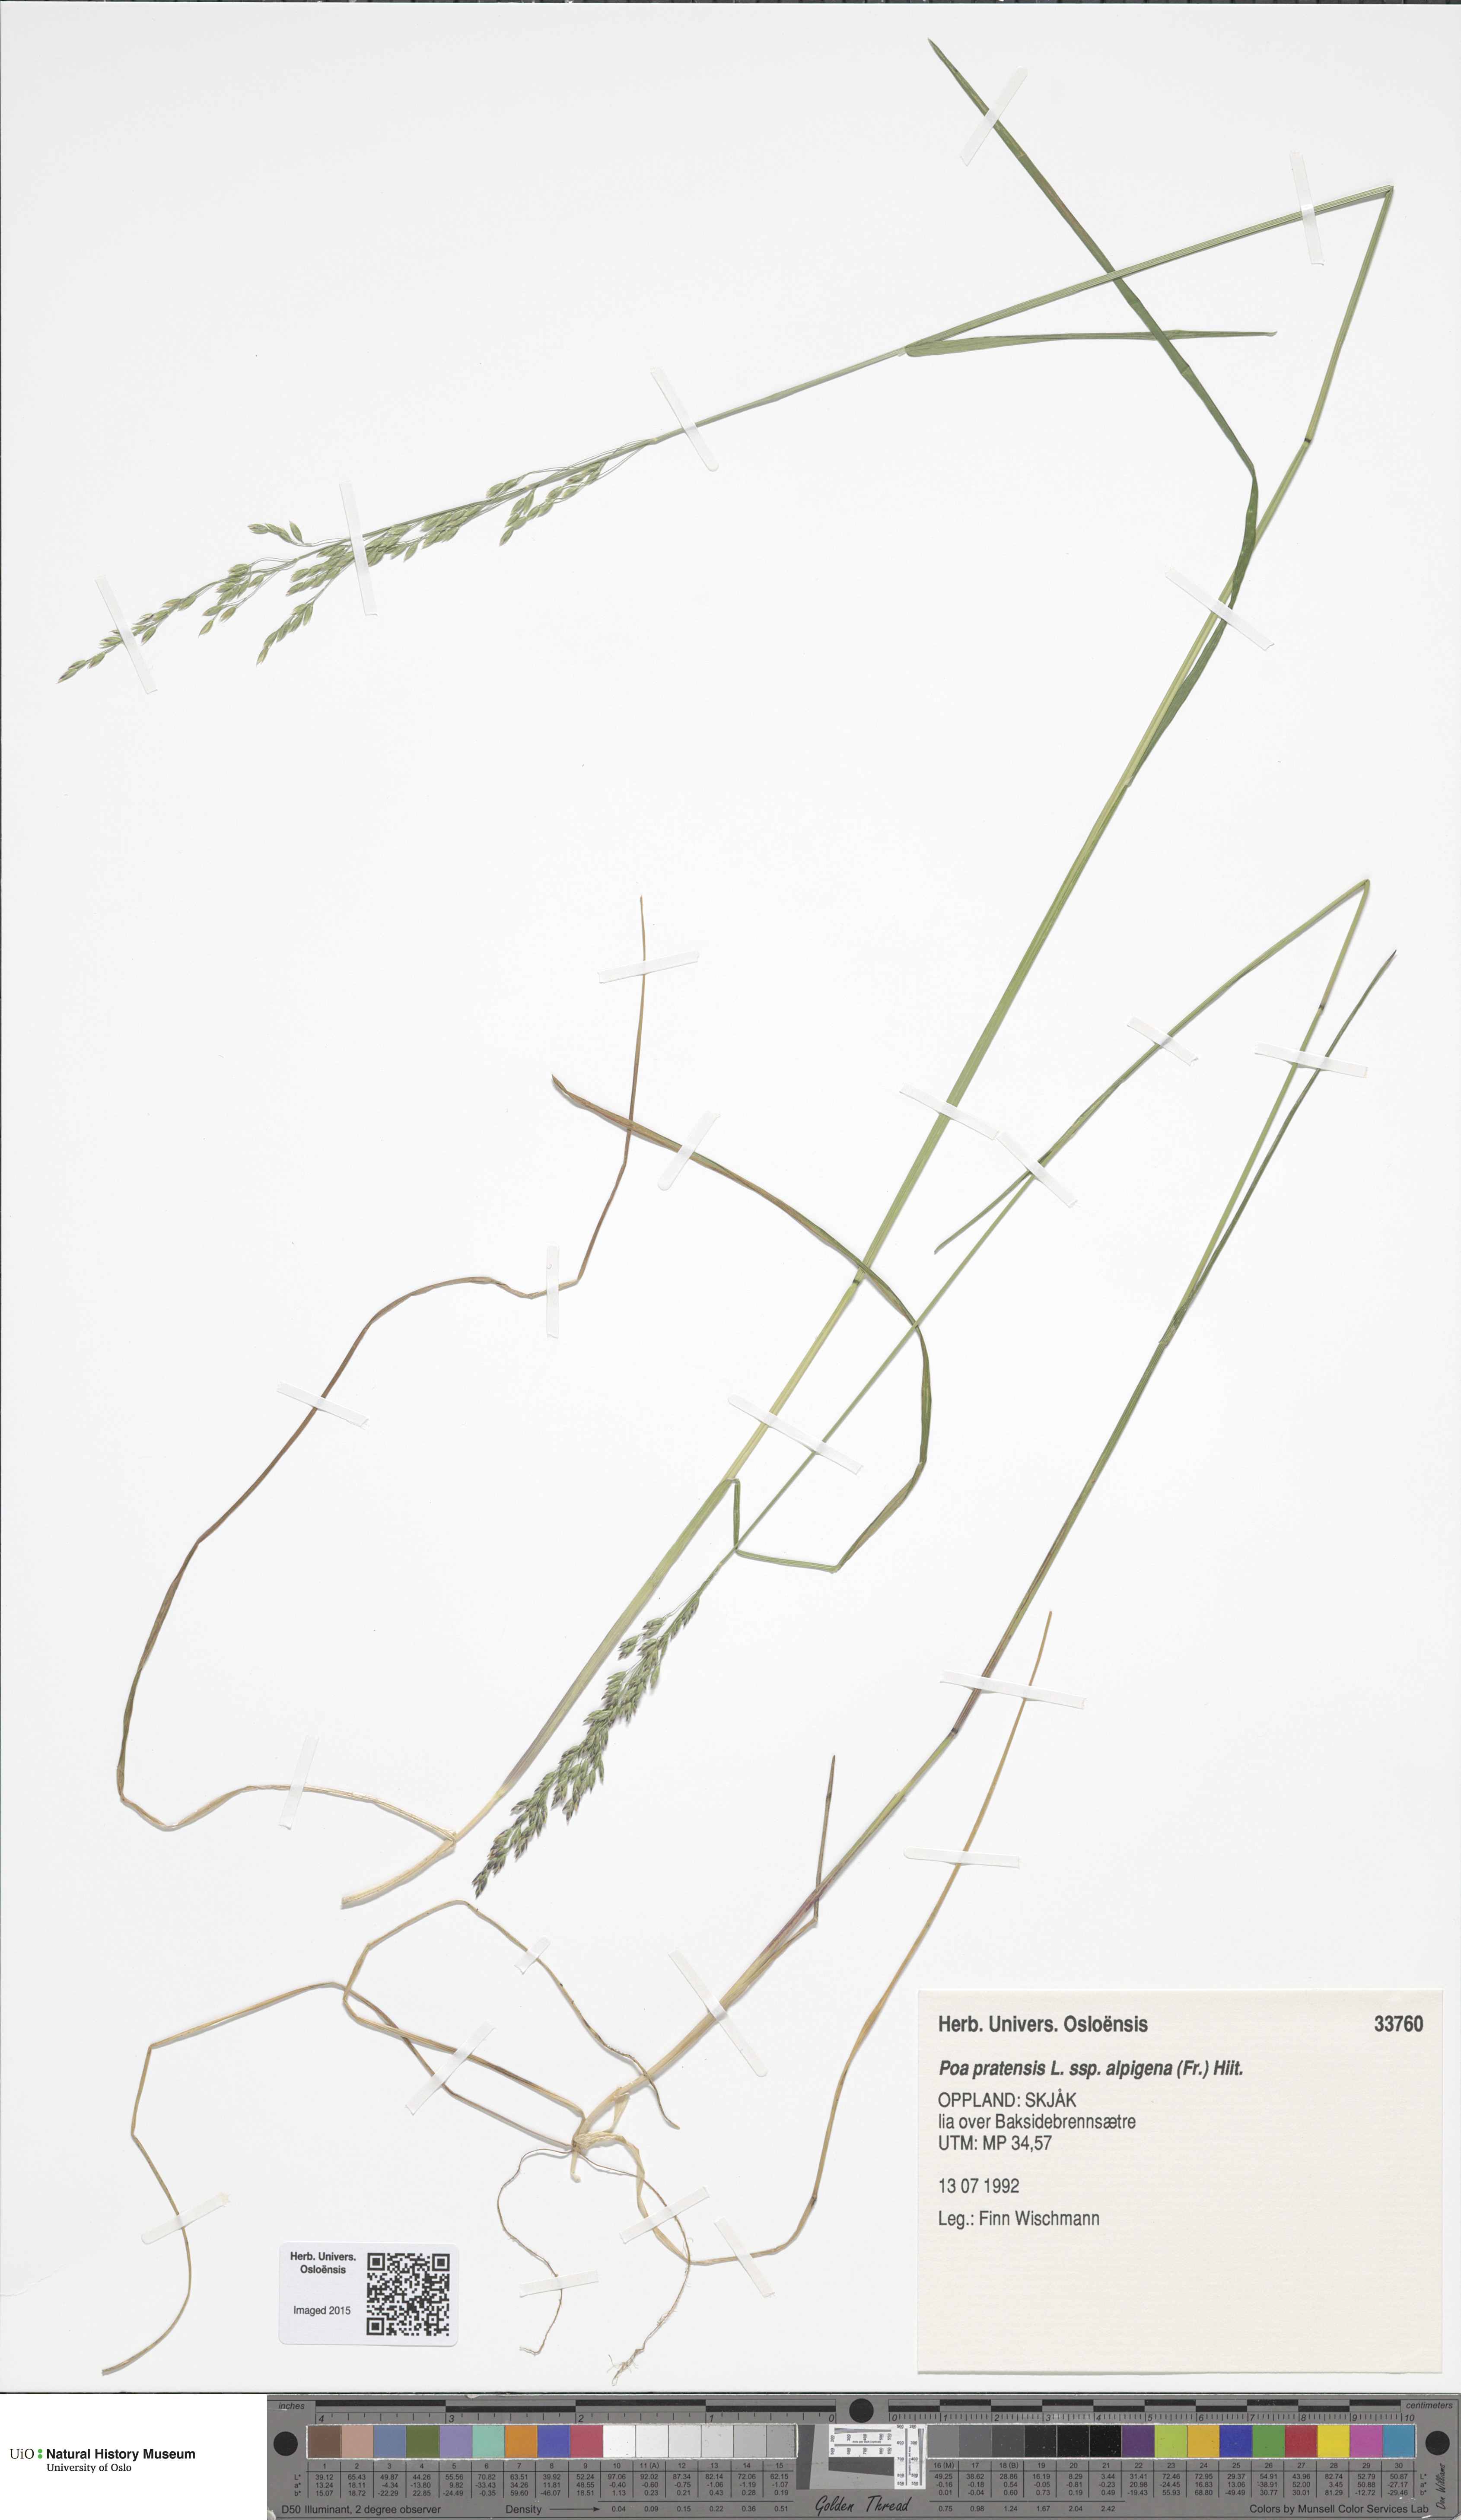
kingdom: Plantae
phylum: Tracheophyta
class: Liliopsida
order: Poales
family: Poaceae
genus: Poa
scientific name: Poa alpigena
